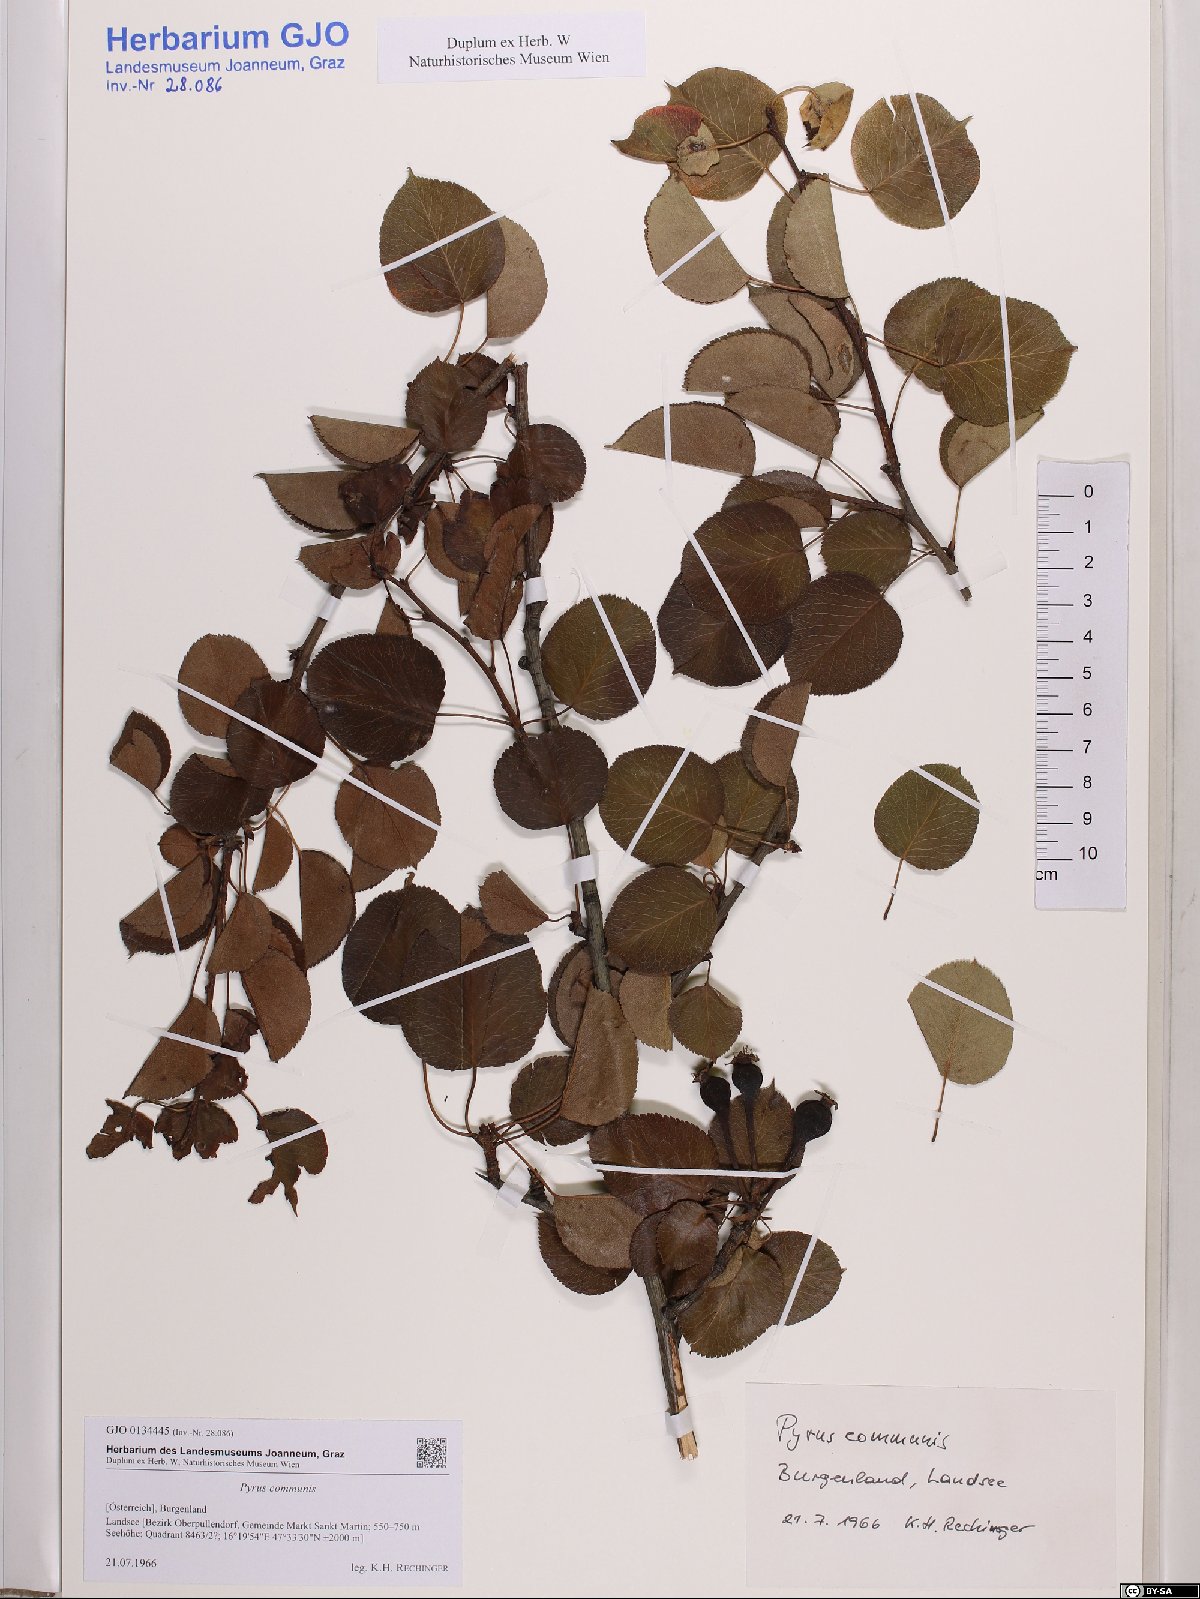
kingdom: Plantae
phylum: Tracheophyta
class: Magnoliopsida
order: Rosales
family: Rosaceae
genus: Pyrus
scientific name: Pyrus communis
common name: Pear
